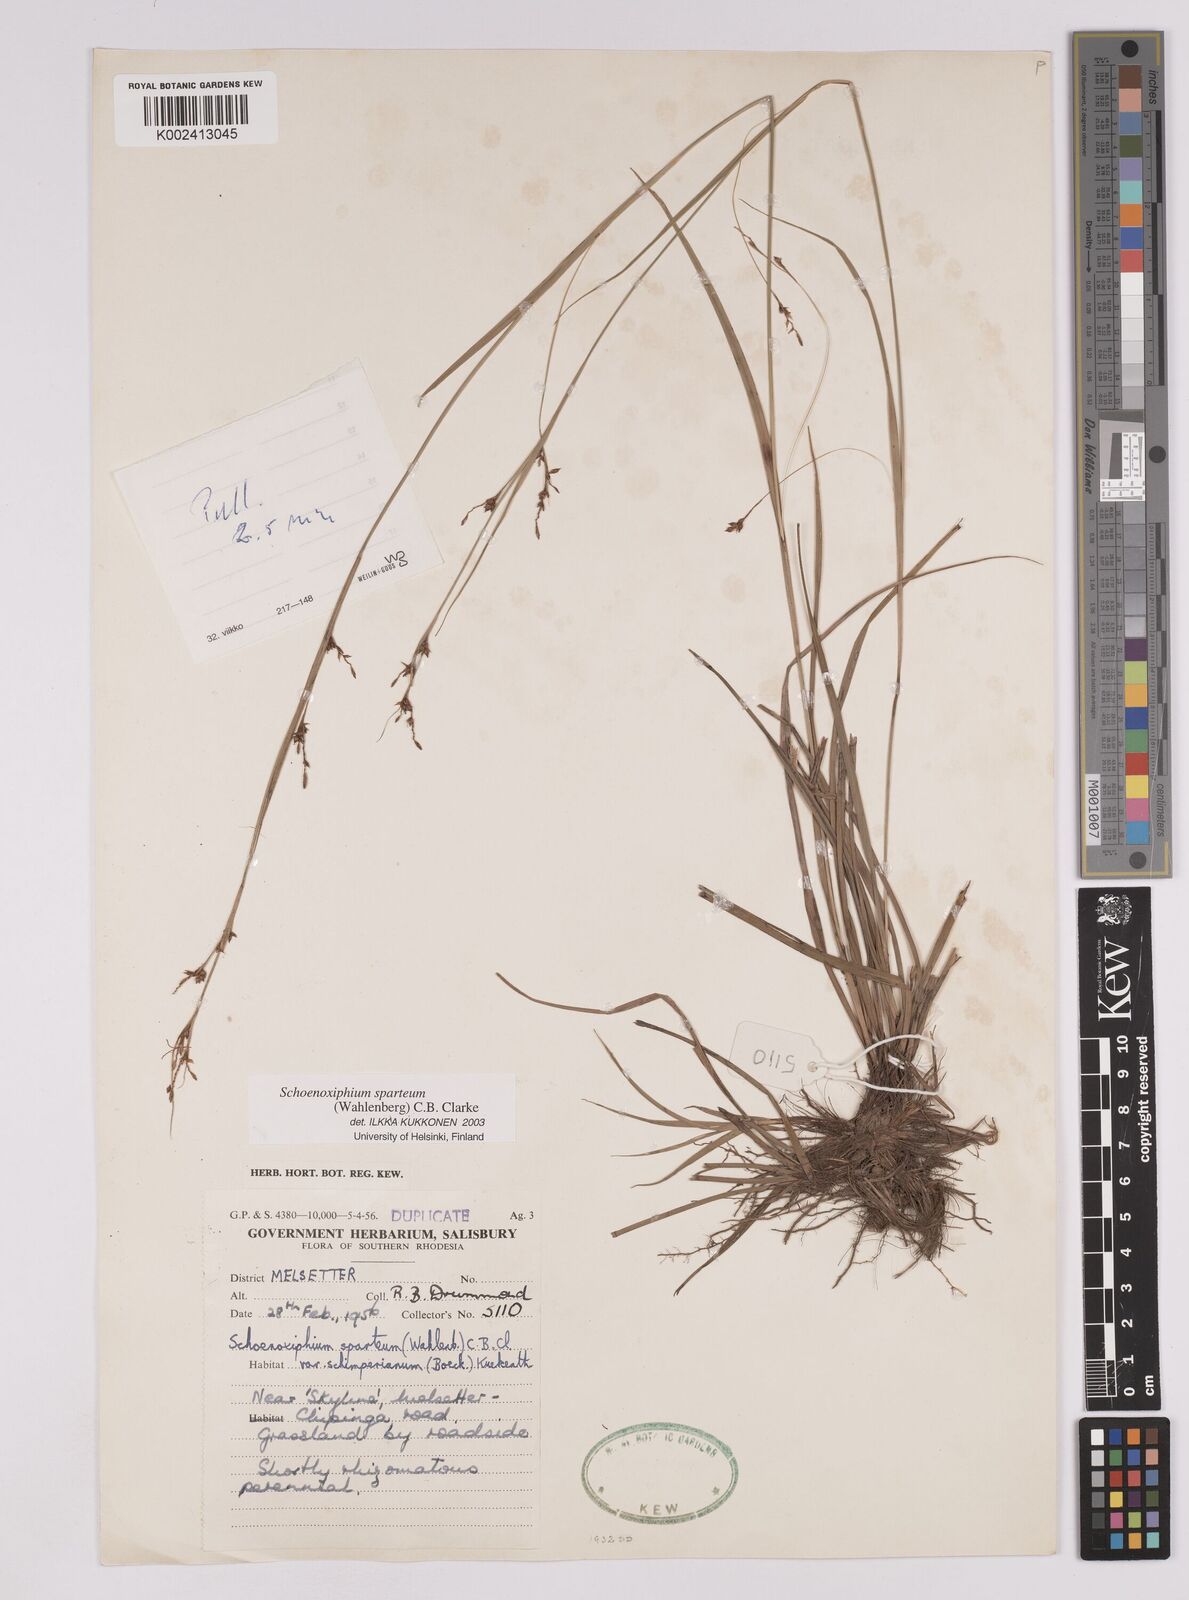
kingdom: Plantae
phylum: Tracheophyta
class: Liliopsida
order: Poales
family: Cyperaceae
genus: Carex
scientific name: Carex spartea
